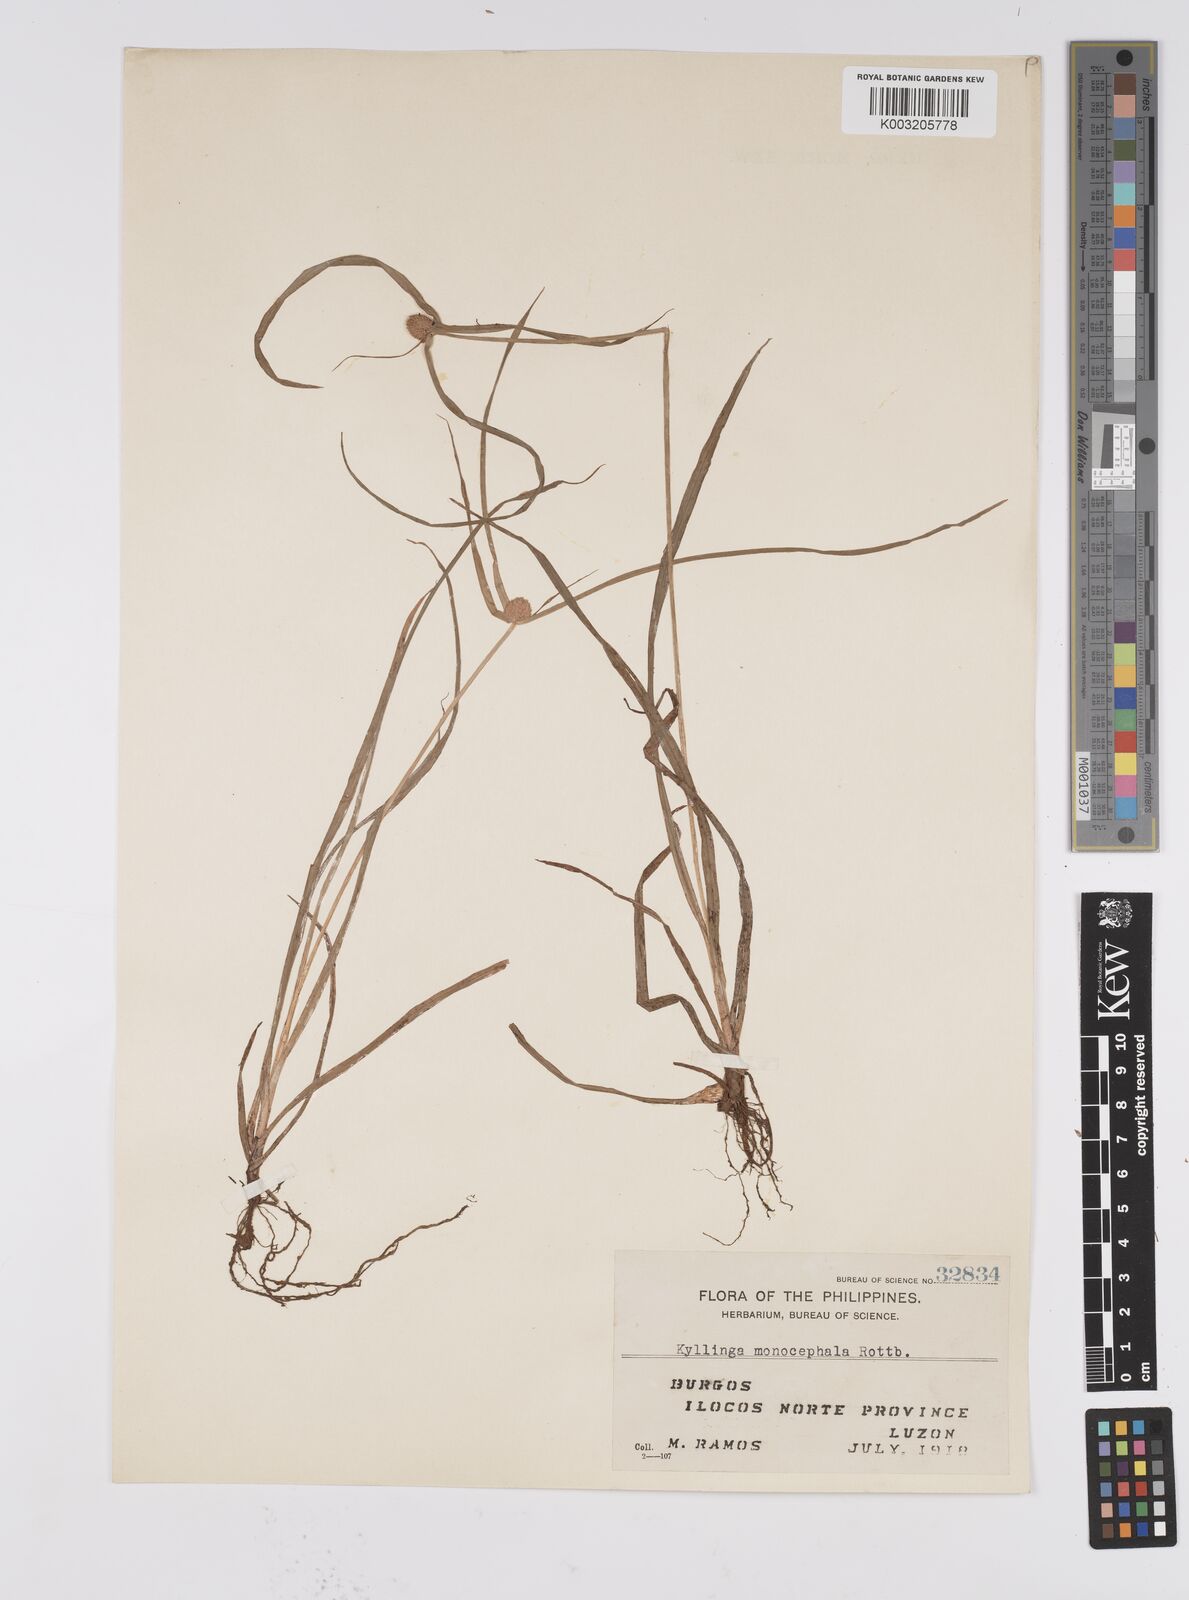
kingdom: Plantae
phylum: Tracheophyta
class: Liliopsida
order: Poales
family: Cyperaceae
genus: Cyperus
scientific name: Cyperus nemoralis
